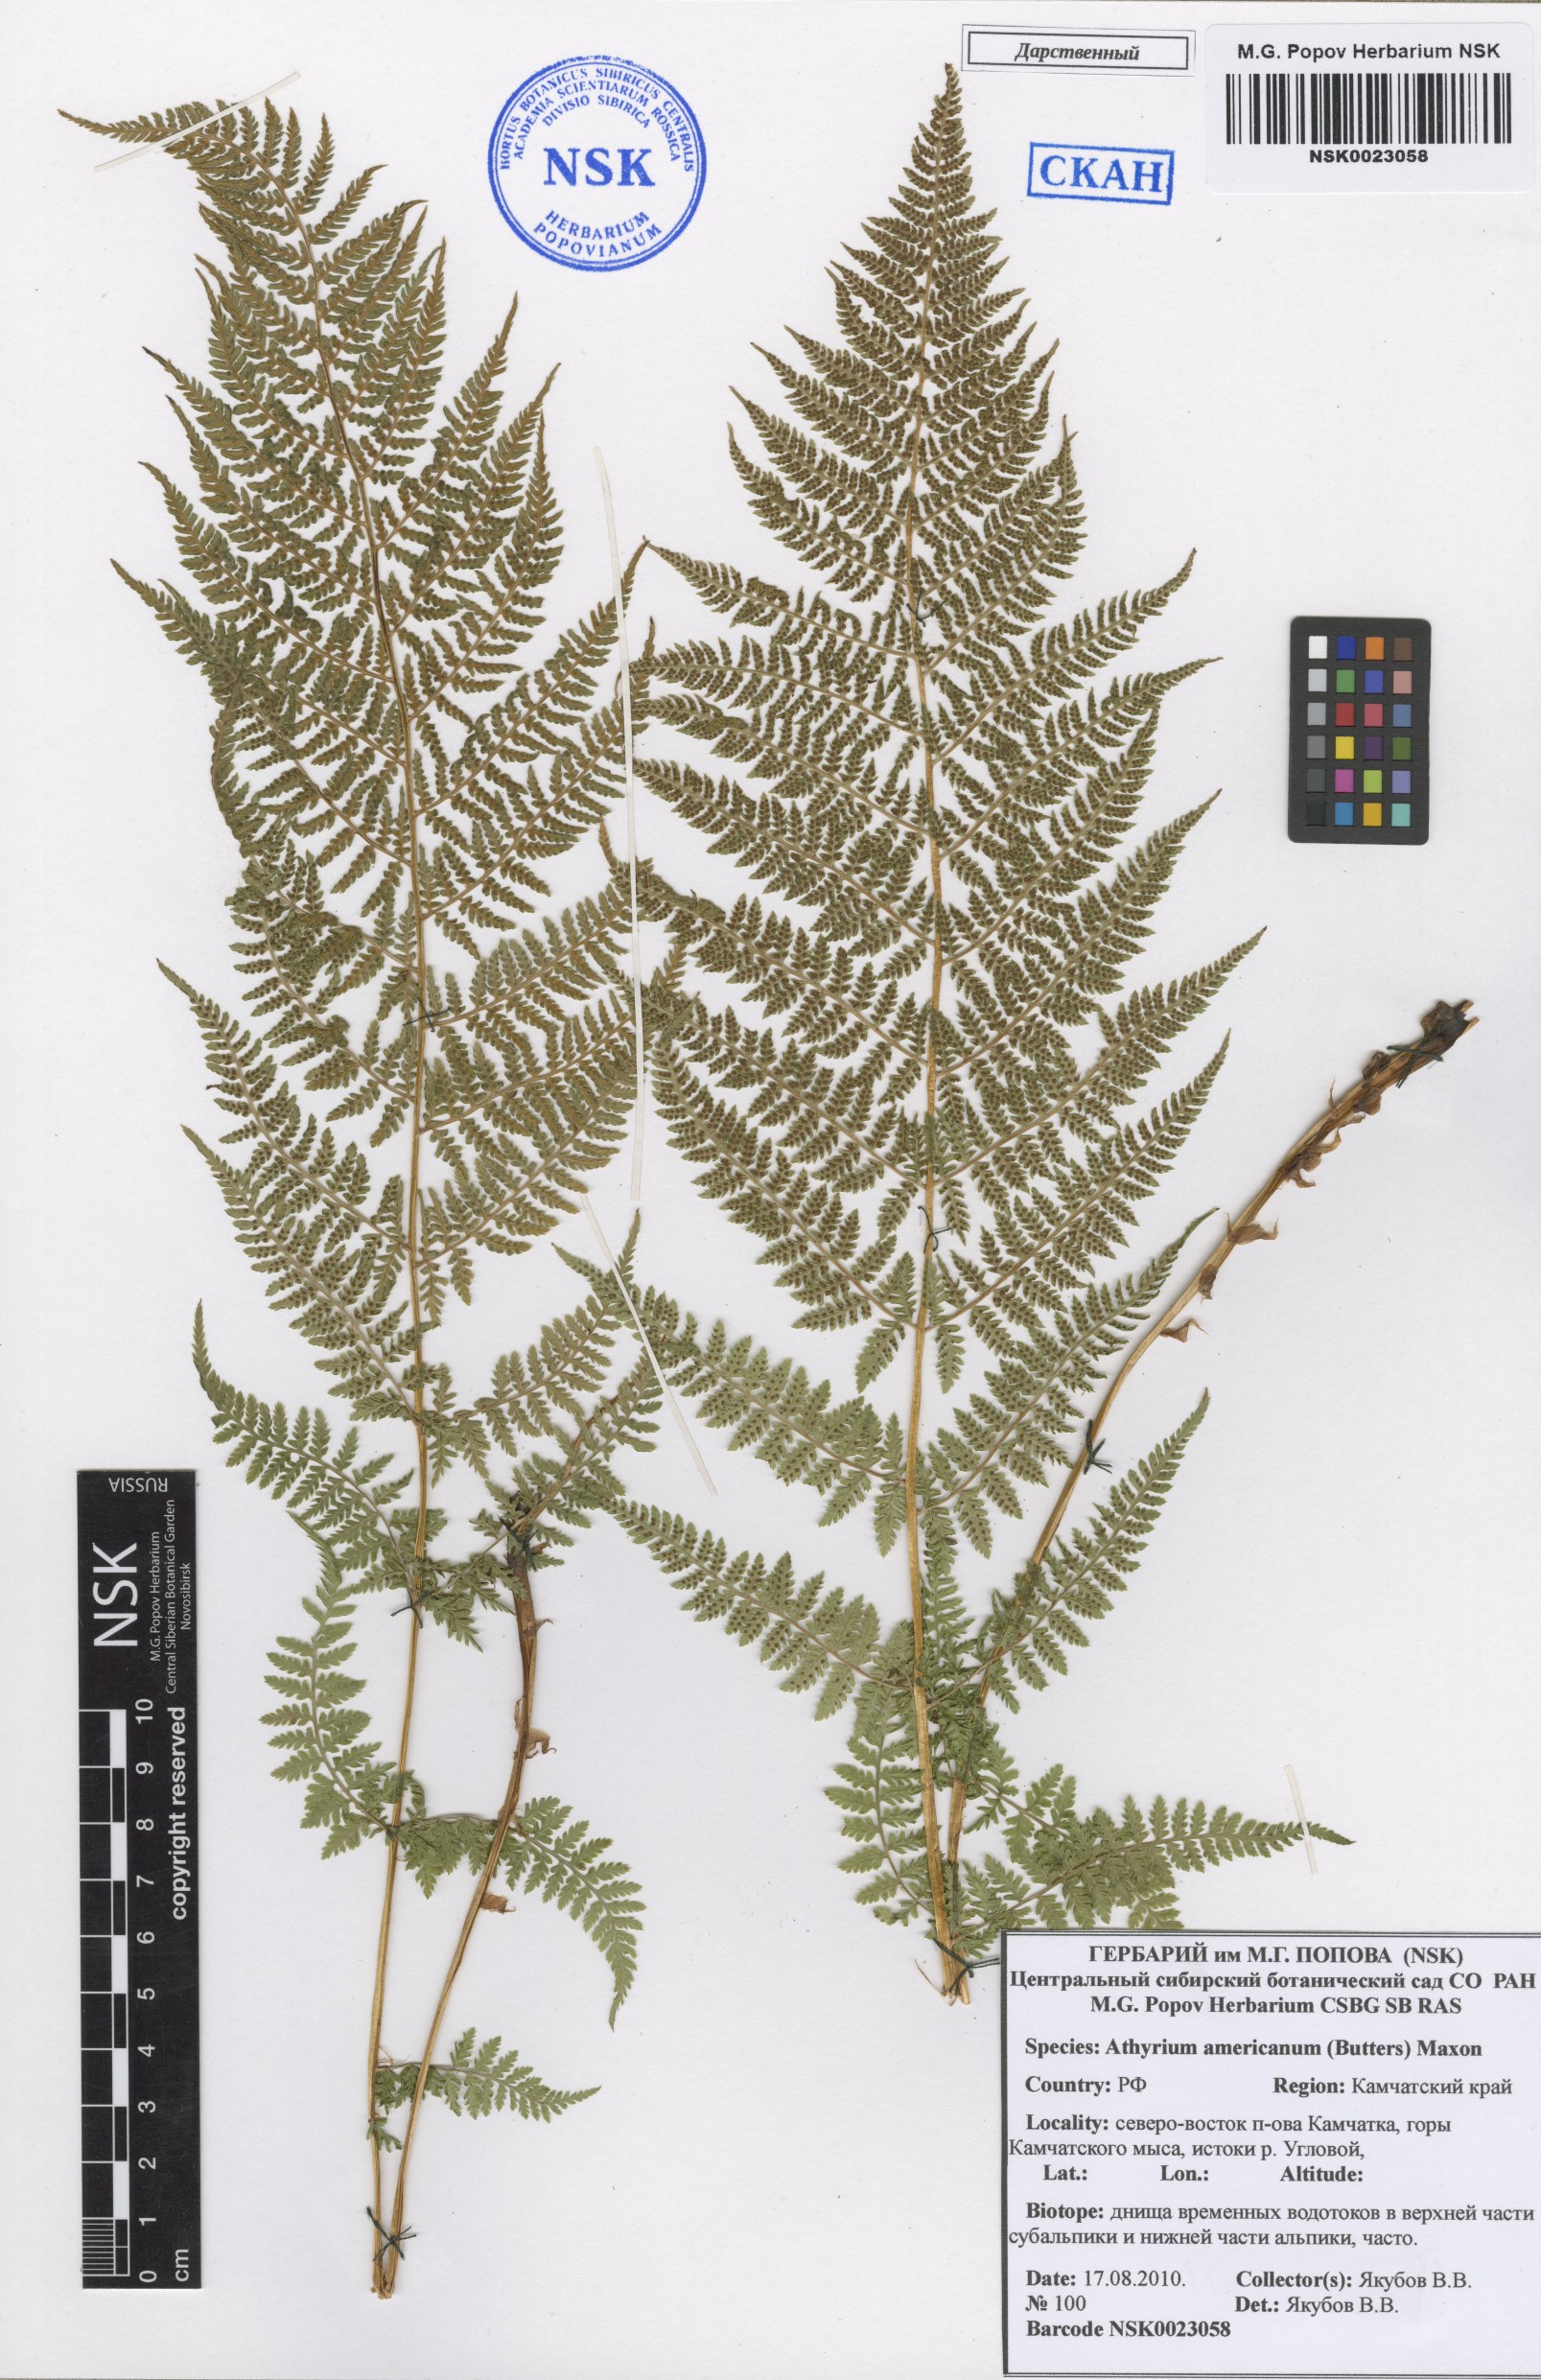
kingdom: Plantae
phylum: Tracheophyta
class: Polypodiopsida
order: Polypodiales
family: Athyriaceae
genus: Athyrium
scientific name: Athyrium americanum
